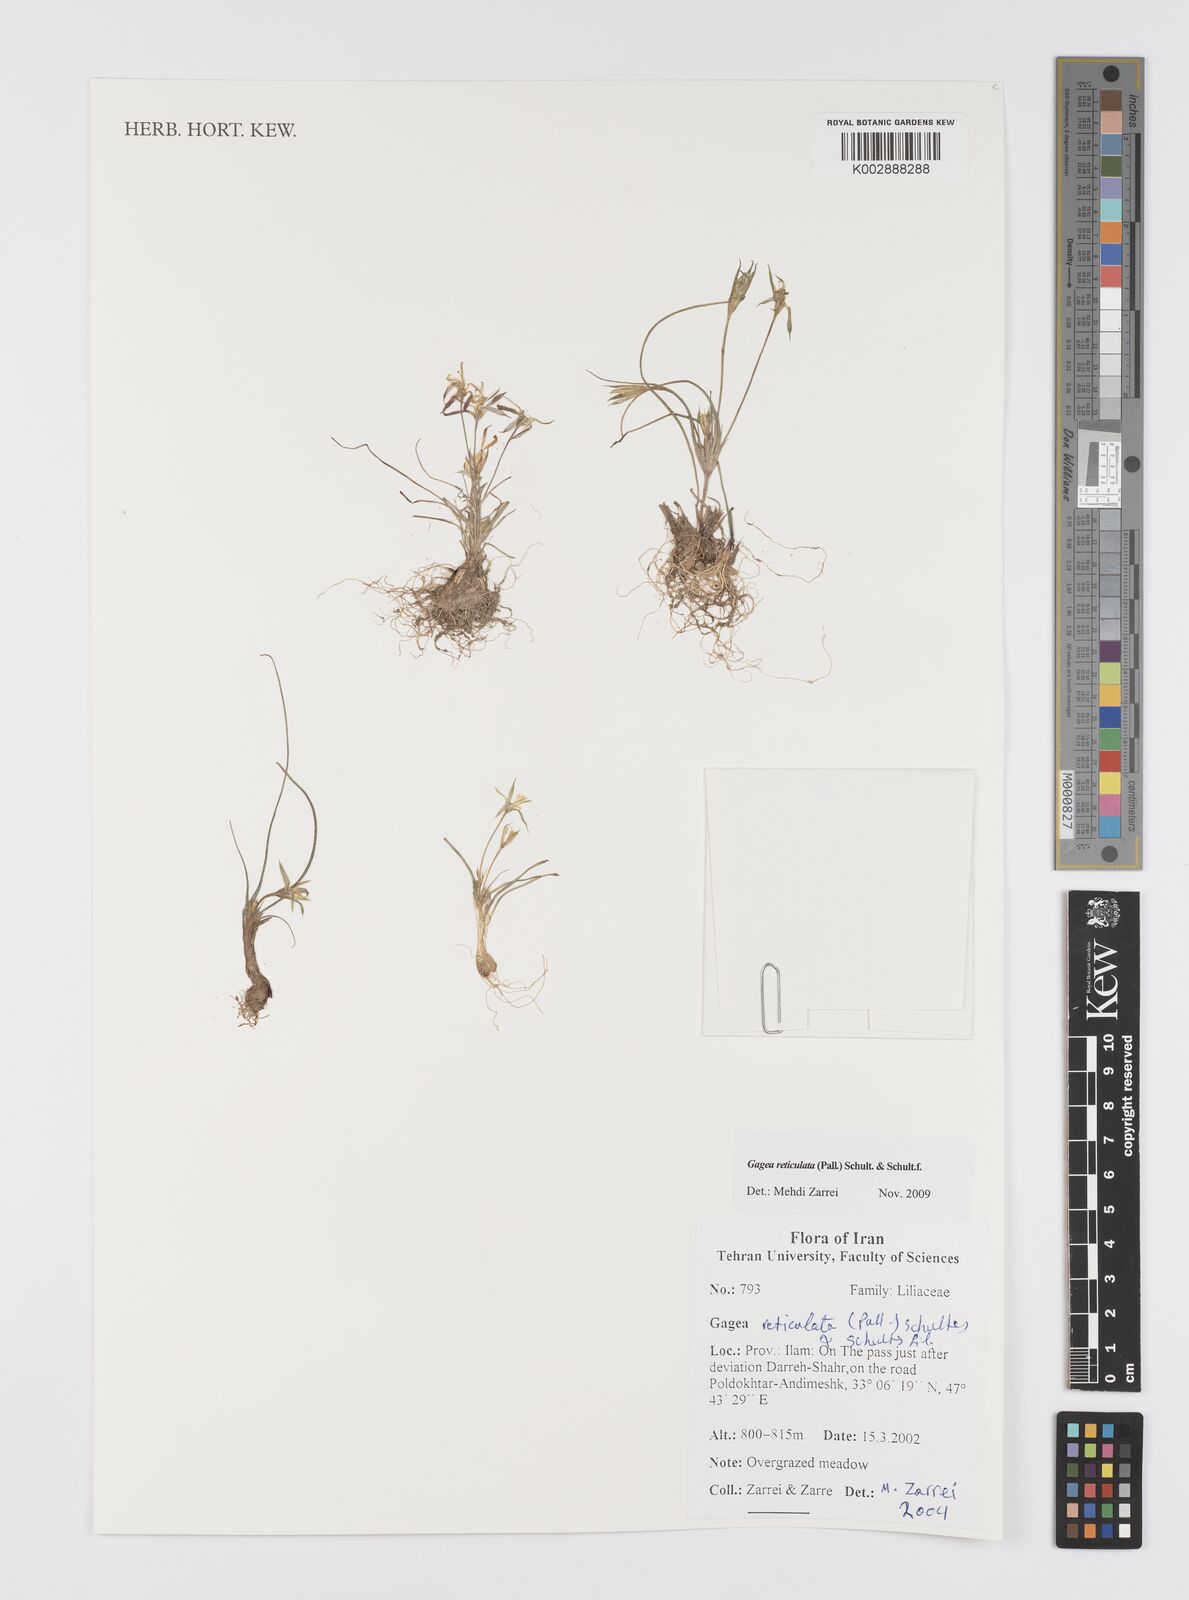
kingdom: Plantae
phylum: Tracheophyta
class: Liliopsida
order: Liliales
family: Liliaceae
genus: Gagea
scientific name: Gagea reticulata
